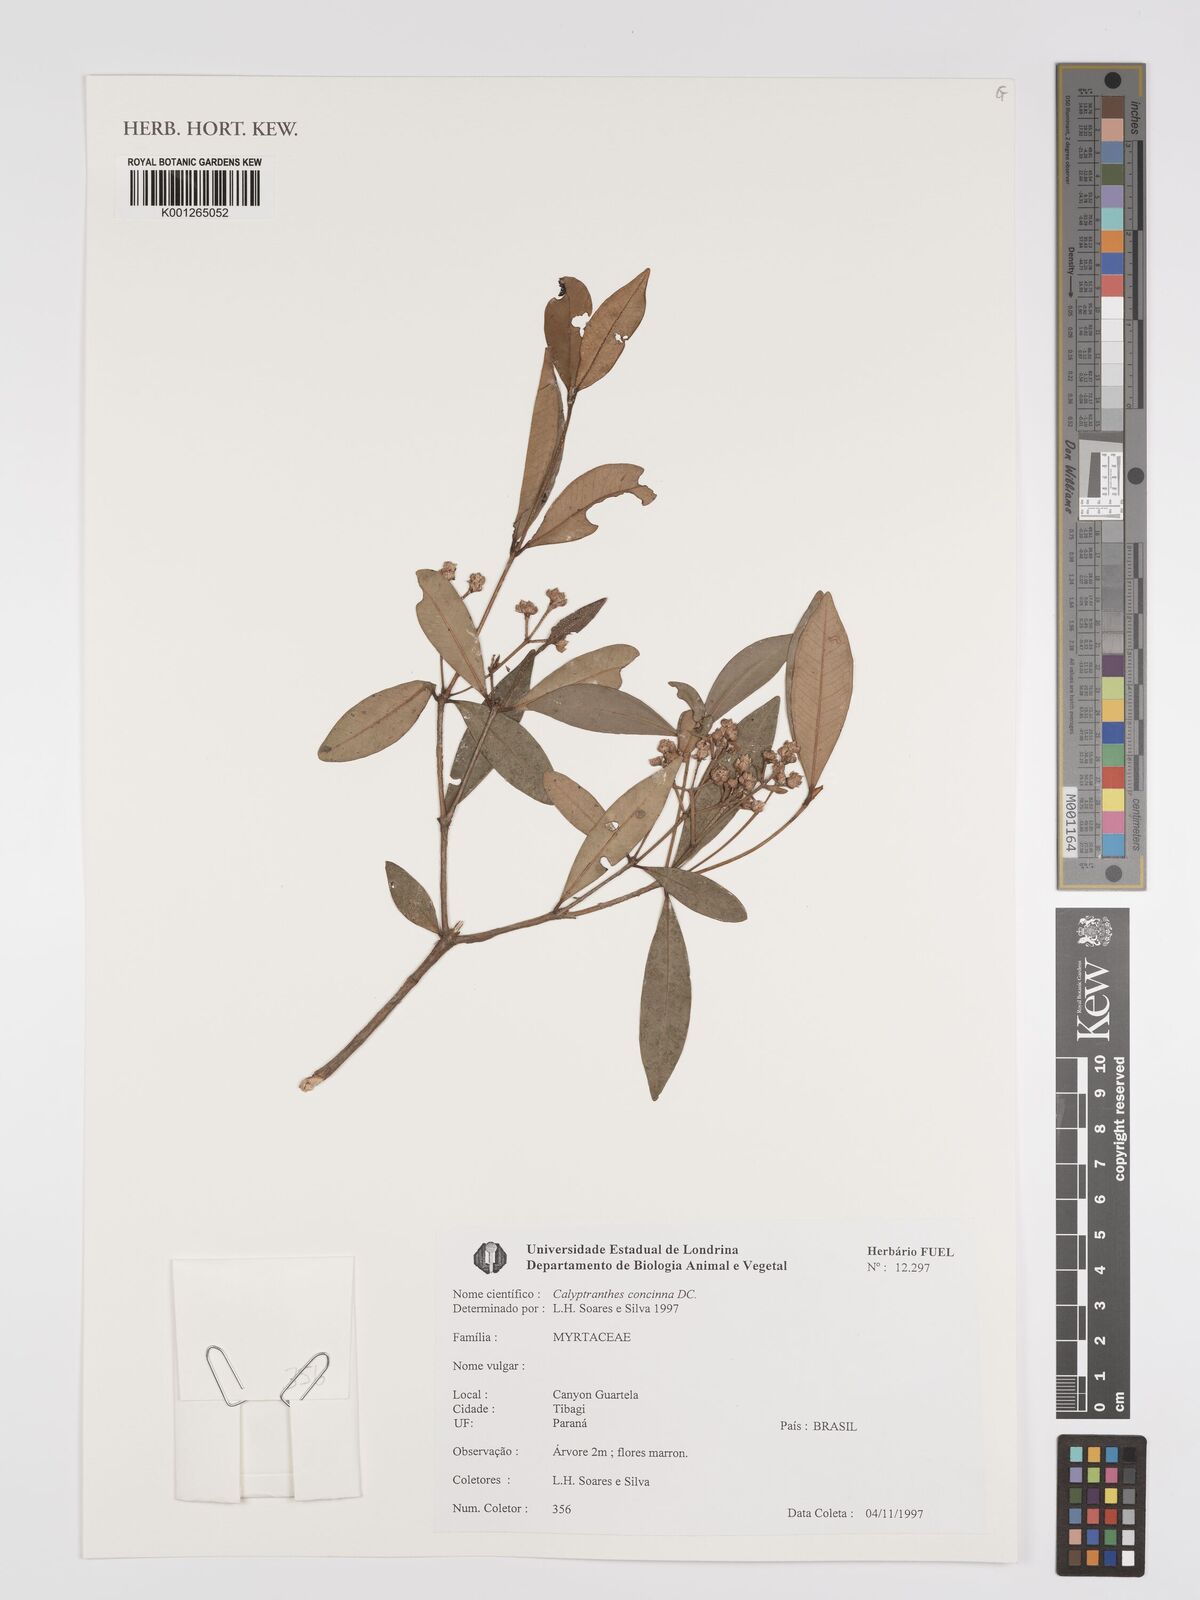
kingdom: Plantae
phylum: Tracheophyta
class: Magnoliopsida
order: Myrtales
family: Myrtaceae
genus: Myrcia
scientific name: Myrcia cruciflora
